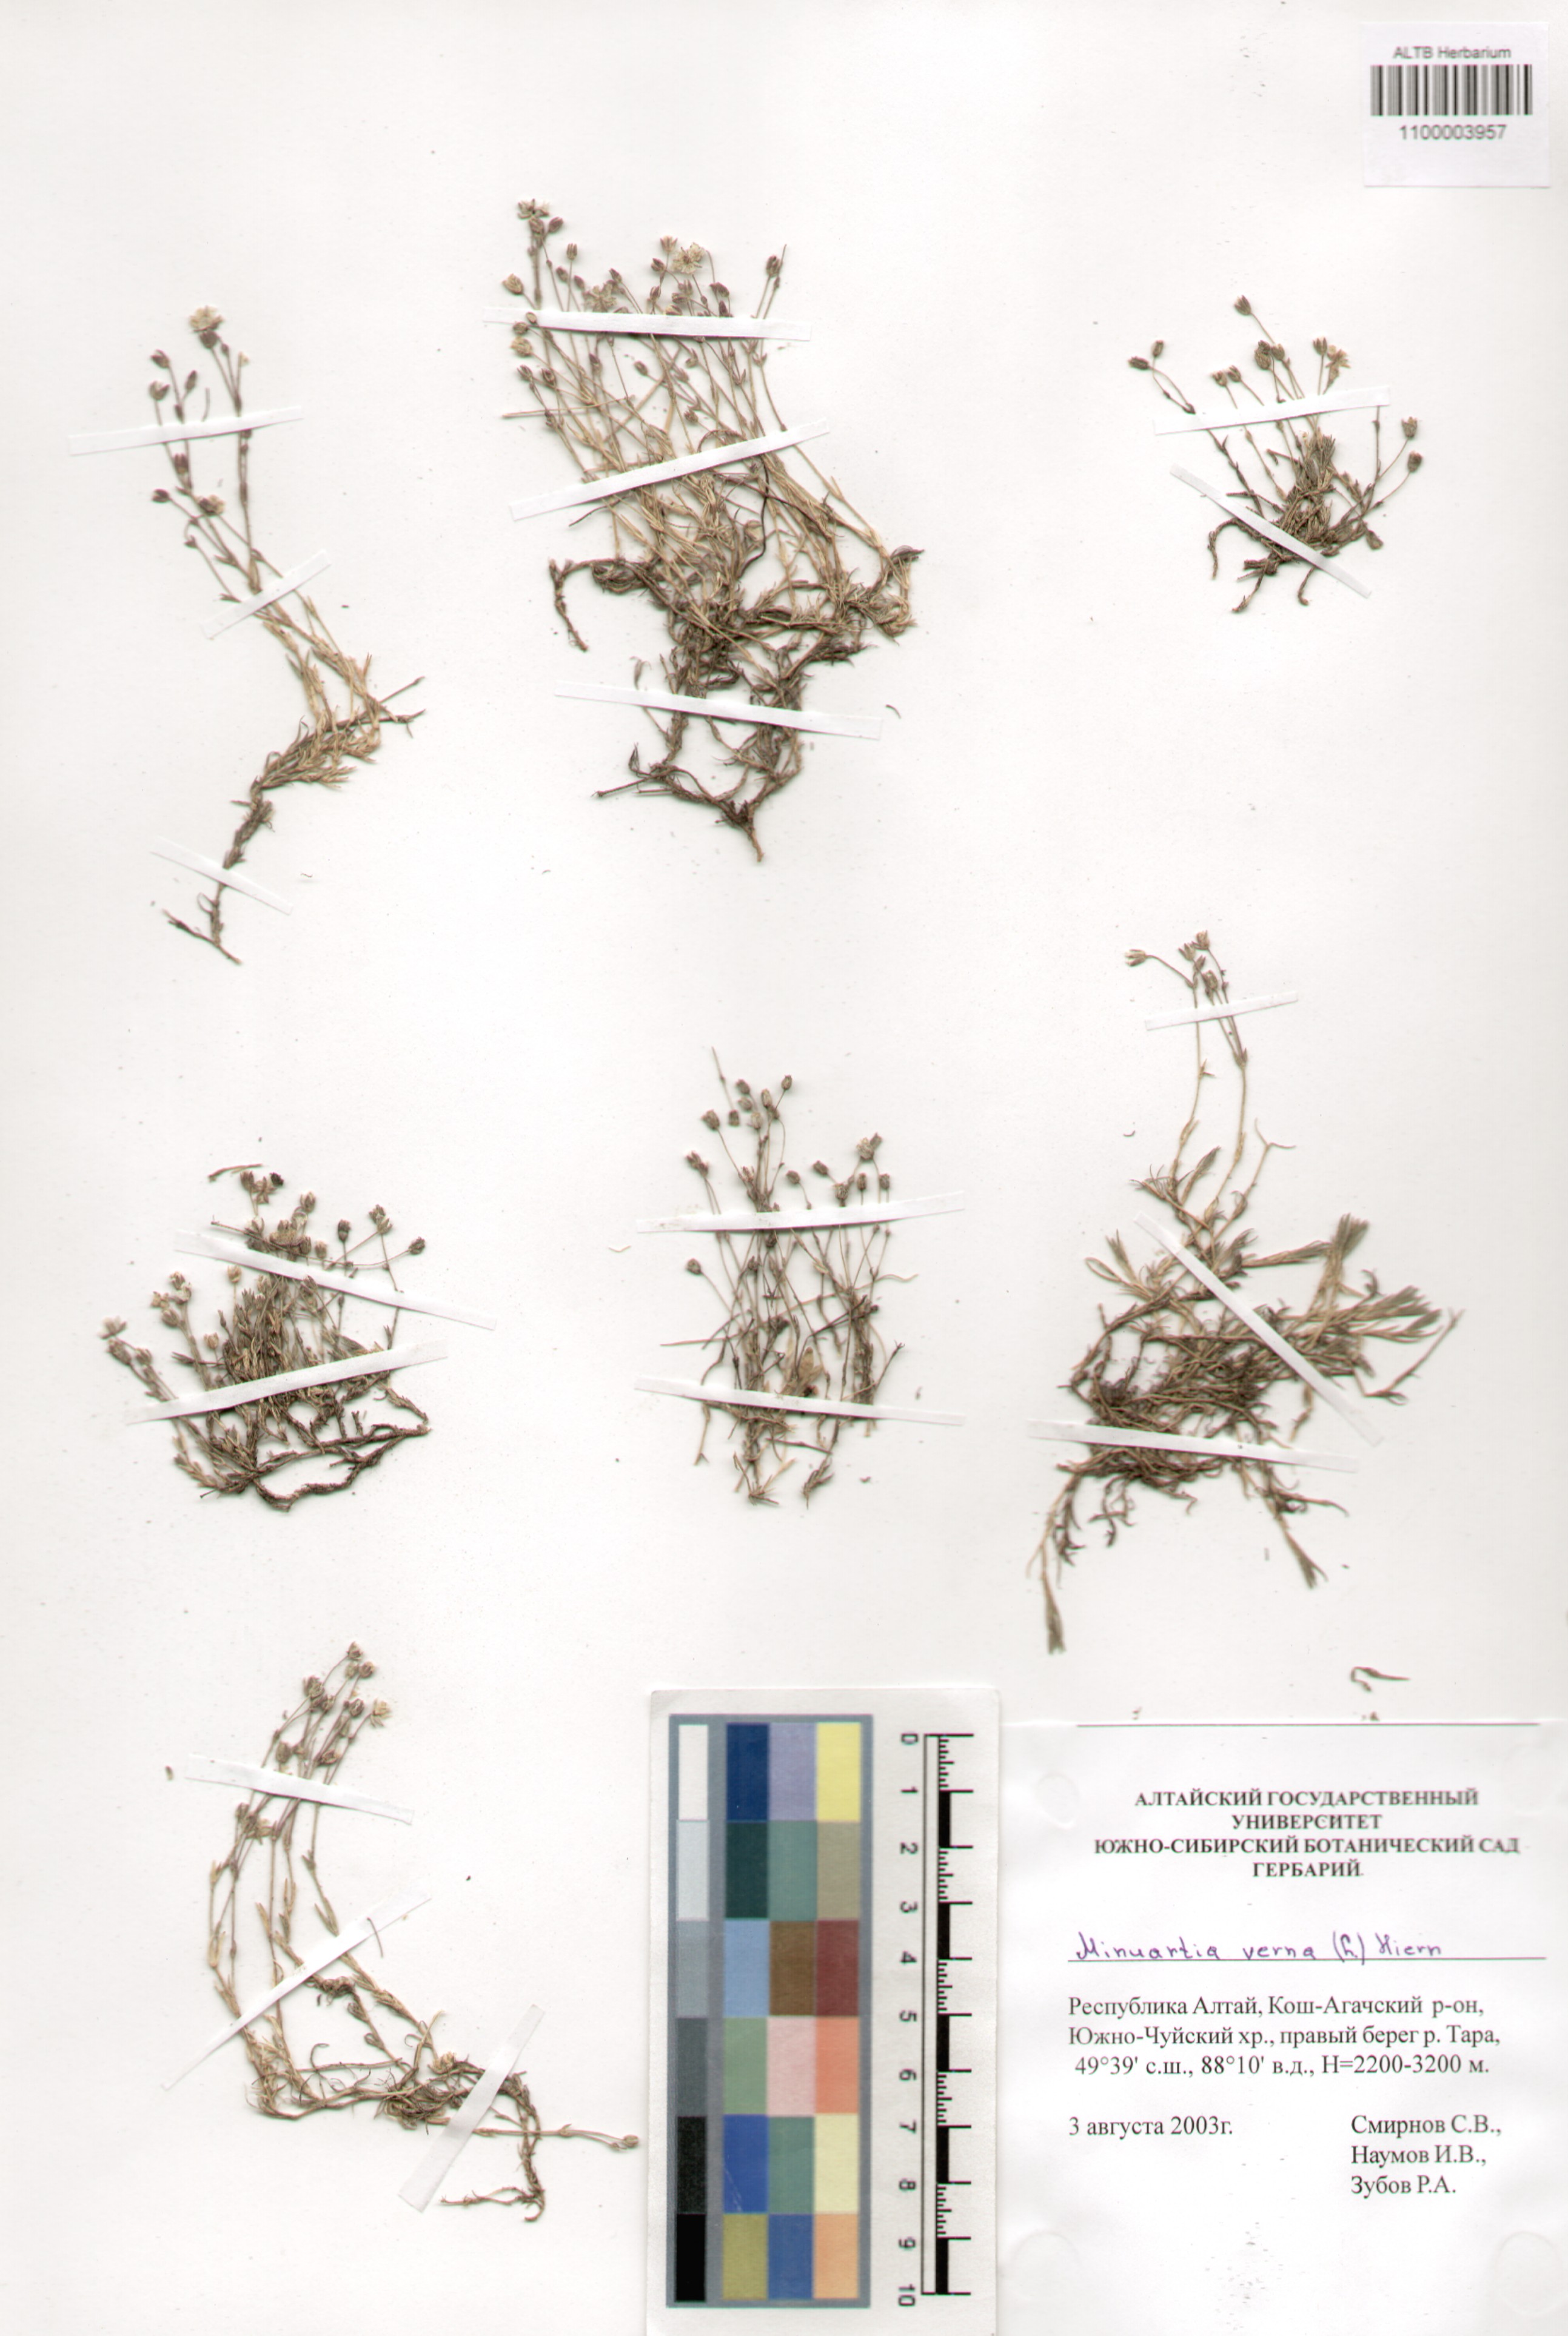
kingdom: Plantae
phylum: Tracheophyta
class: Magnoliopsida
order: Caryophyllales
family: Caryophyllaceae
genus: Sabulina
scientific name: Sabulina verna
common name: Spring sandwort
